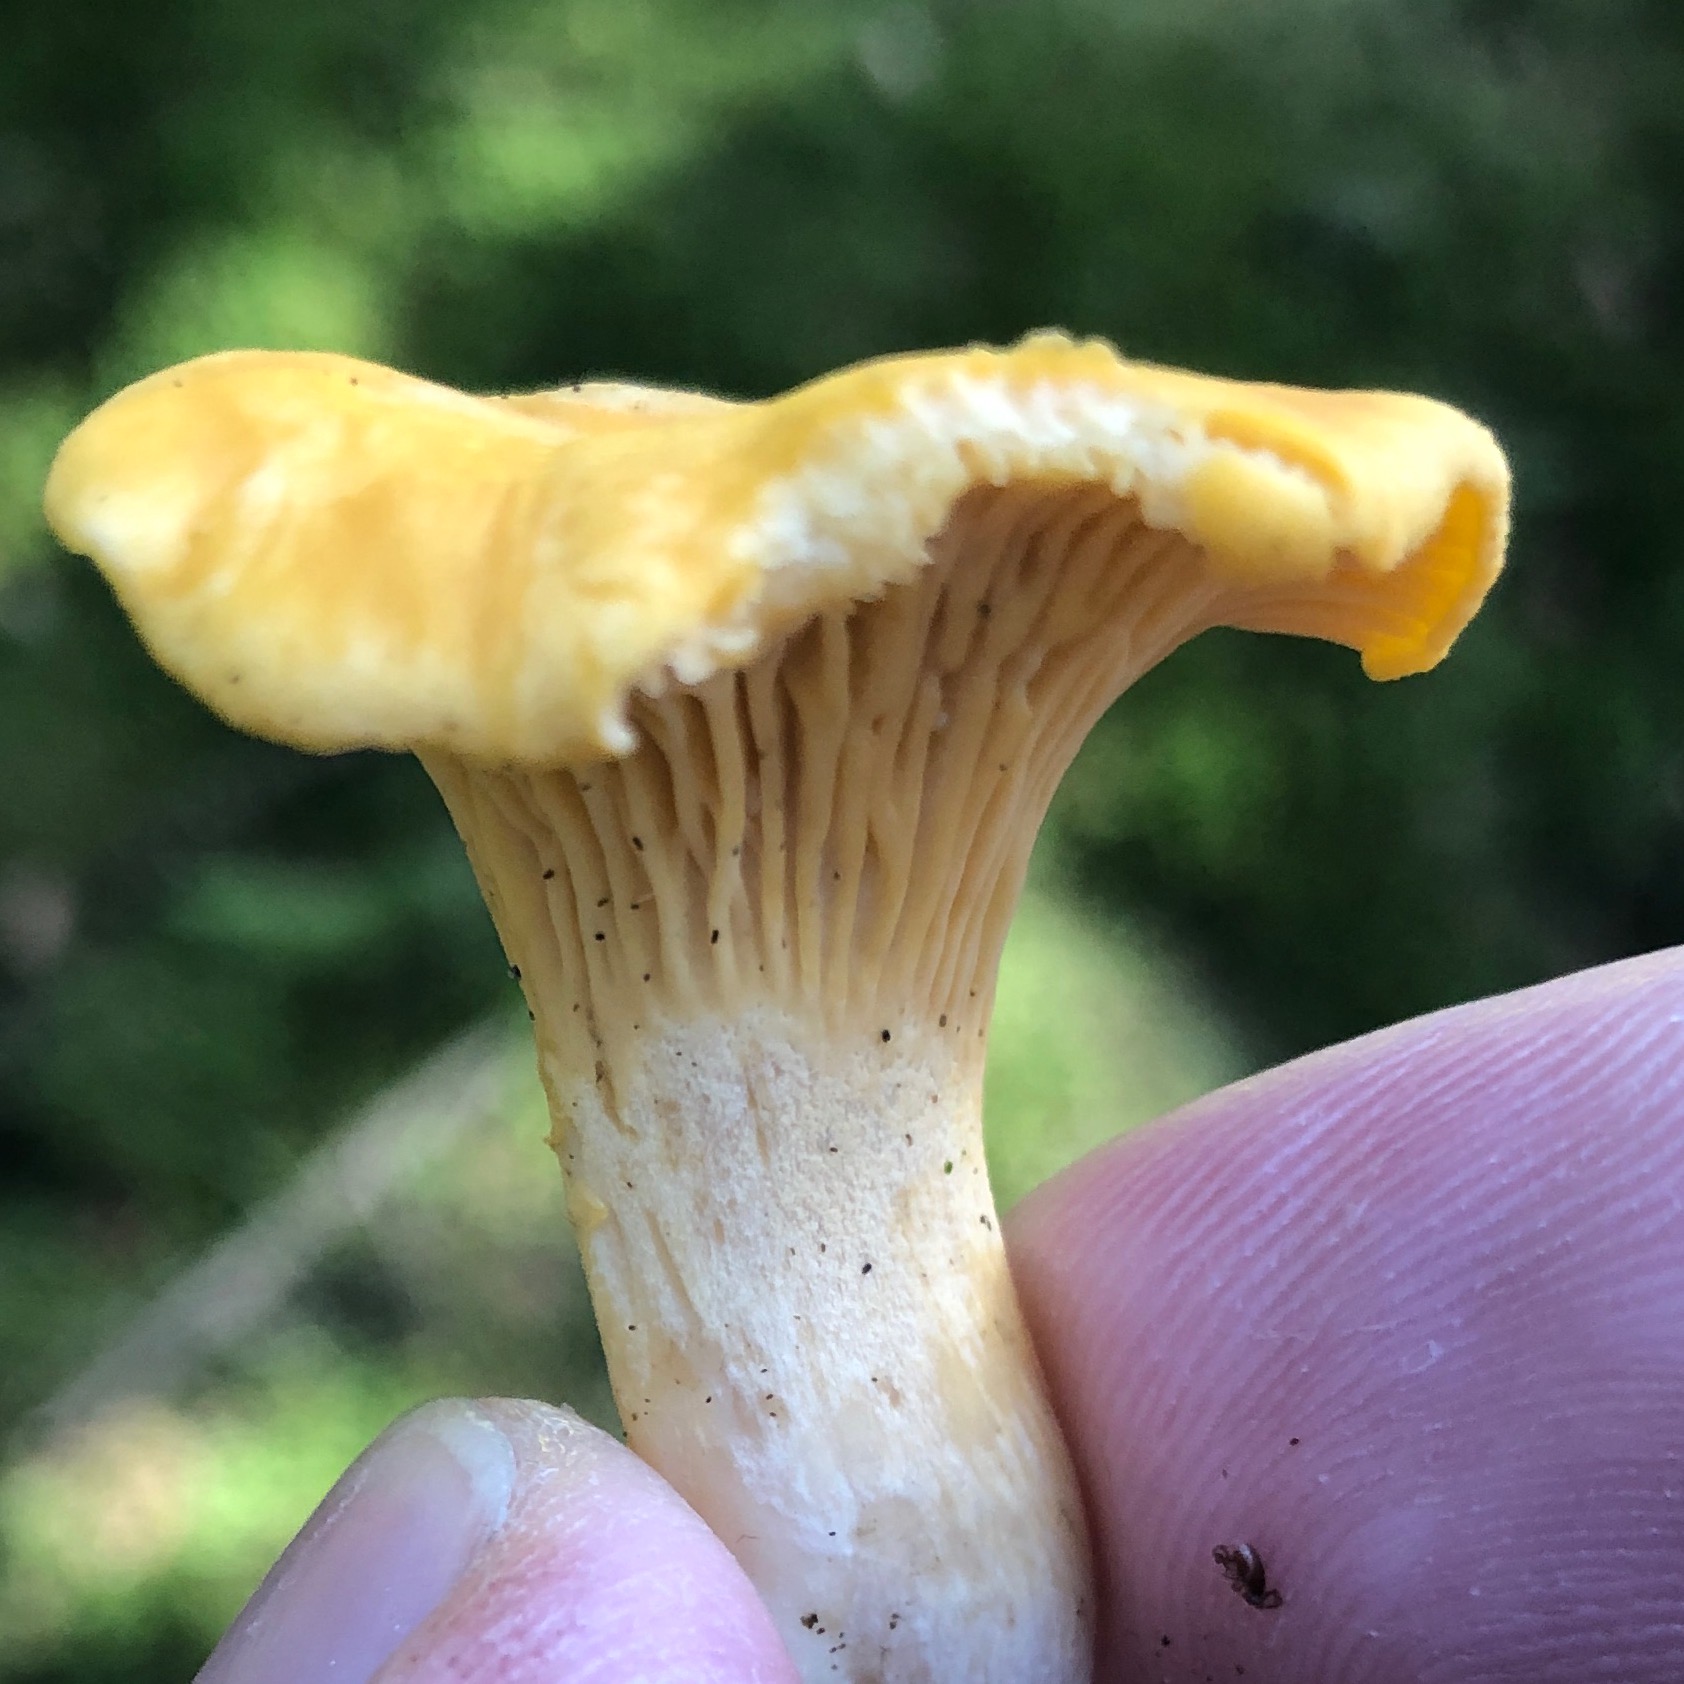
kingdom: Fungi
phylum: Basidiomycota
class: Agaricomycetes
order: Cantharellales
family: Hydnaceae
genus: Cantharellus
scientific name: Cantharellus cibarius
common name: almindelig kantarel
